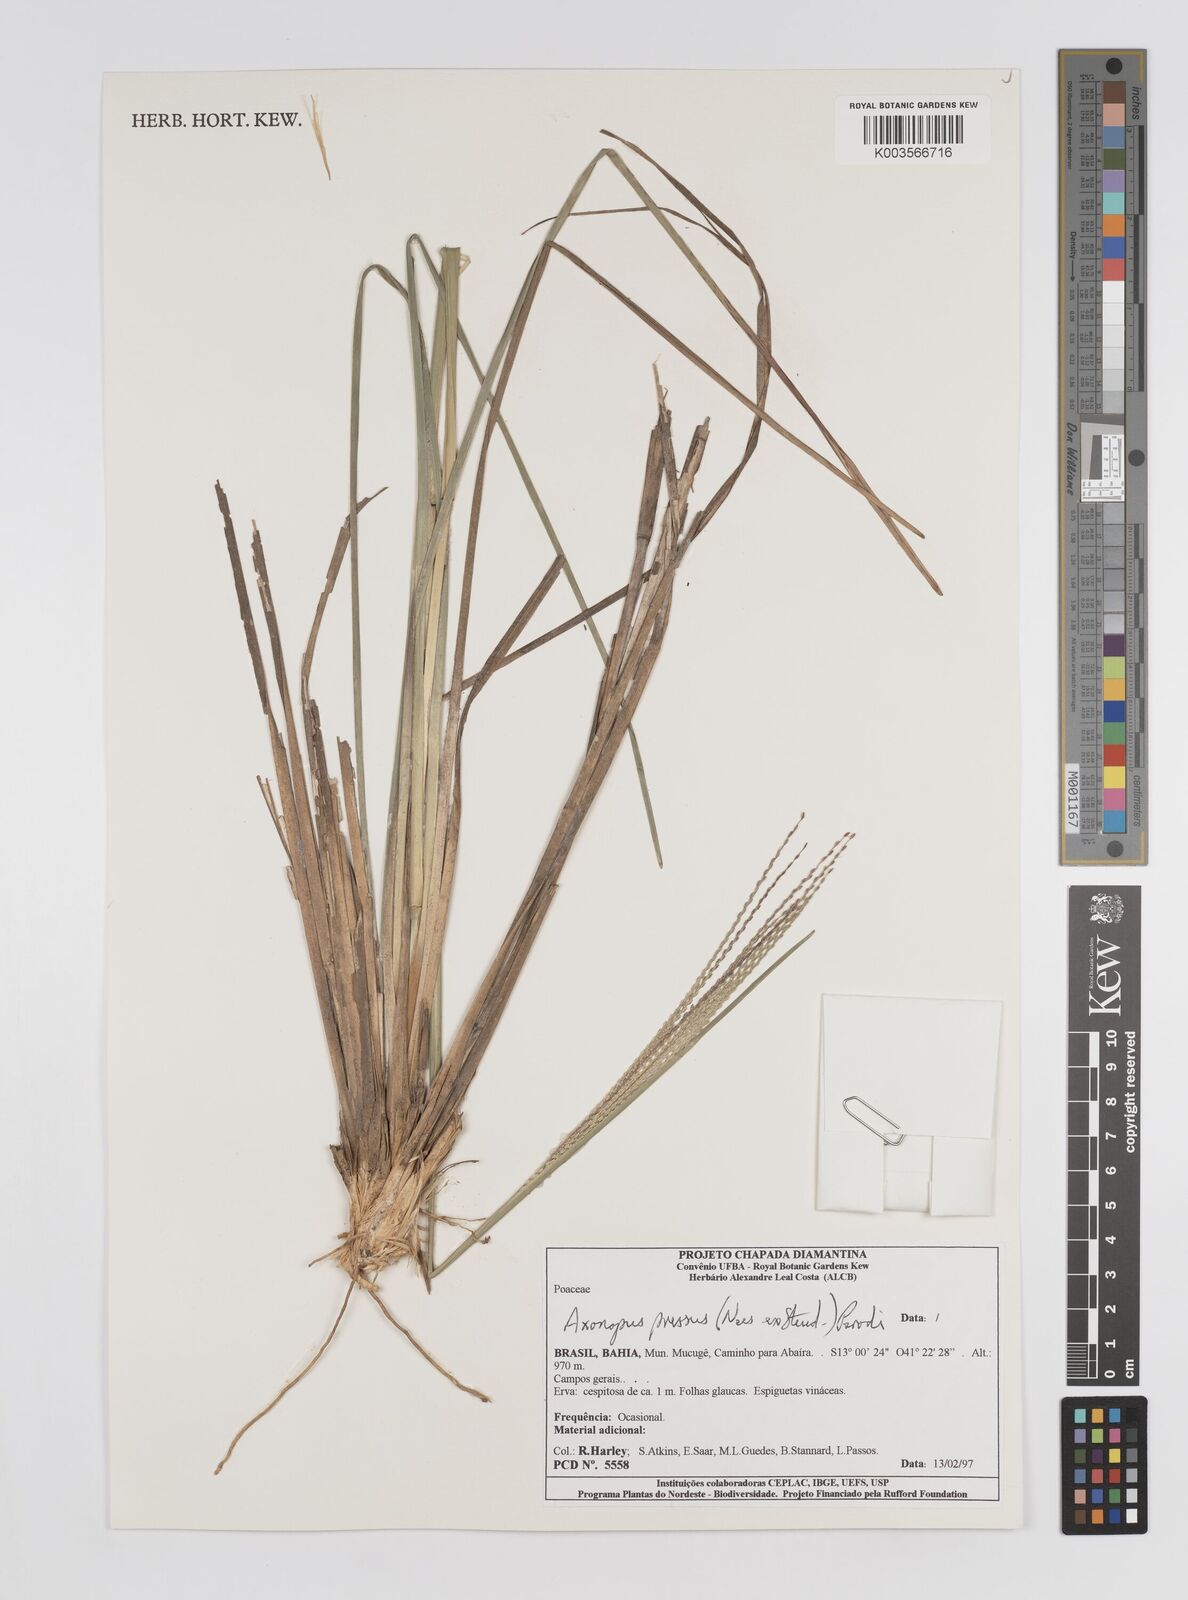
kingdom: Plantae
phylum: Tracheophyta
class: Liliopsida
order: Poales
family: Poaceae
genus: Axonopus
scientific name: Axonopus pressus
